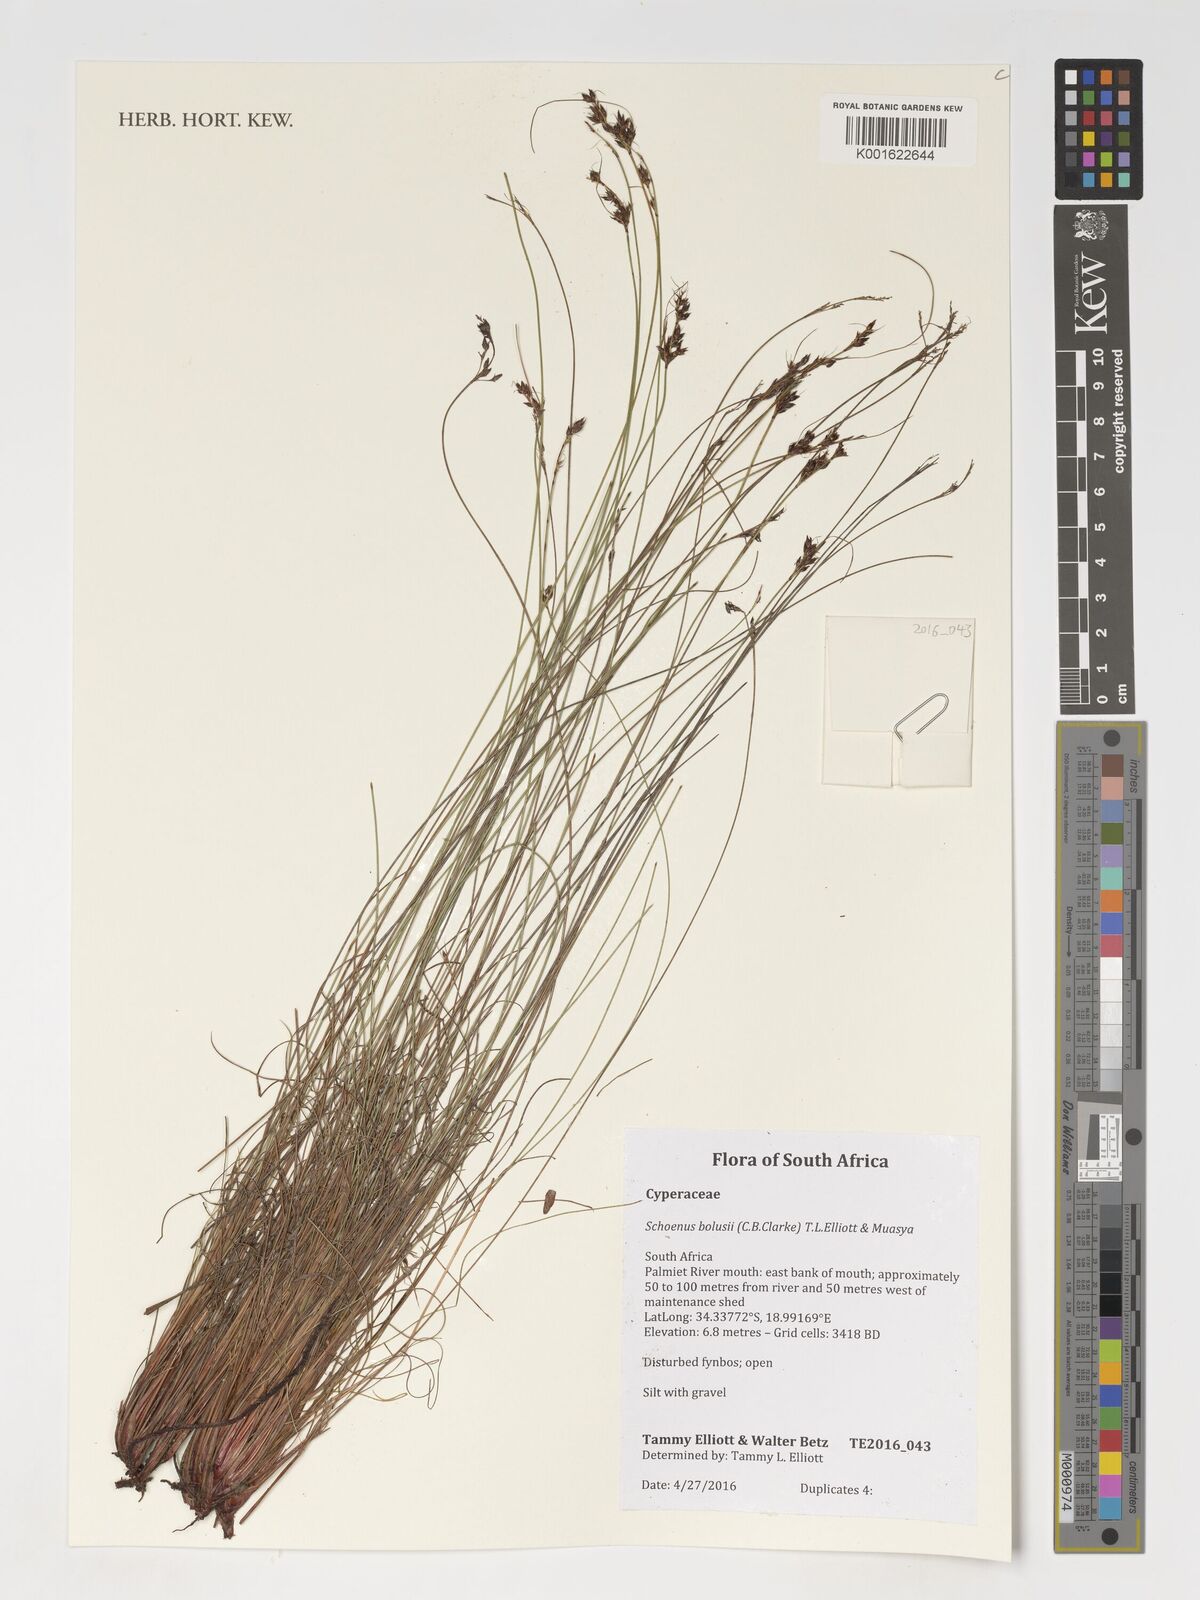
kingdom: Plantae
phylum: Tracheophyta
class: Liliopsida
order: Poales
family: Cyperaceae
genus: Schoenus
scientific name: Schoenus bolusii
